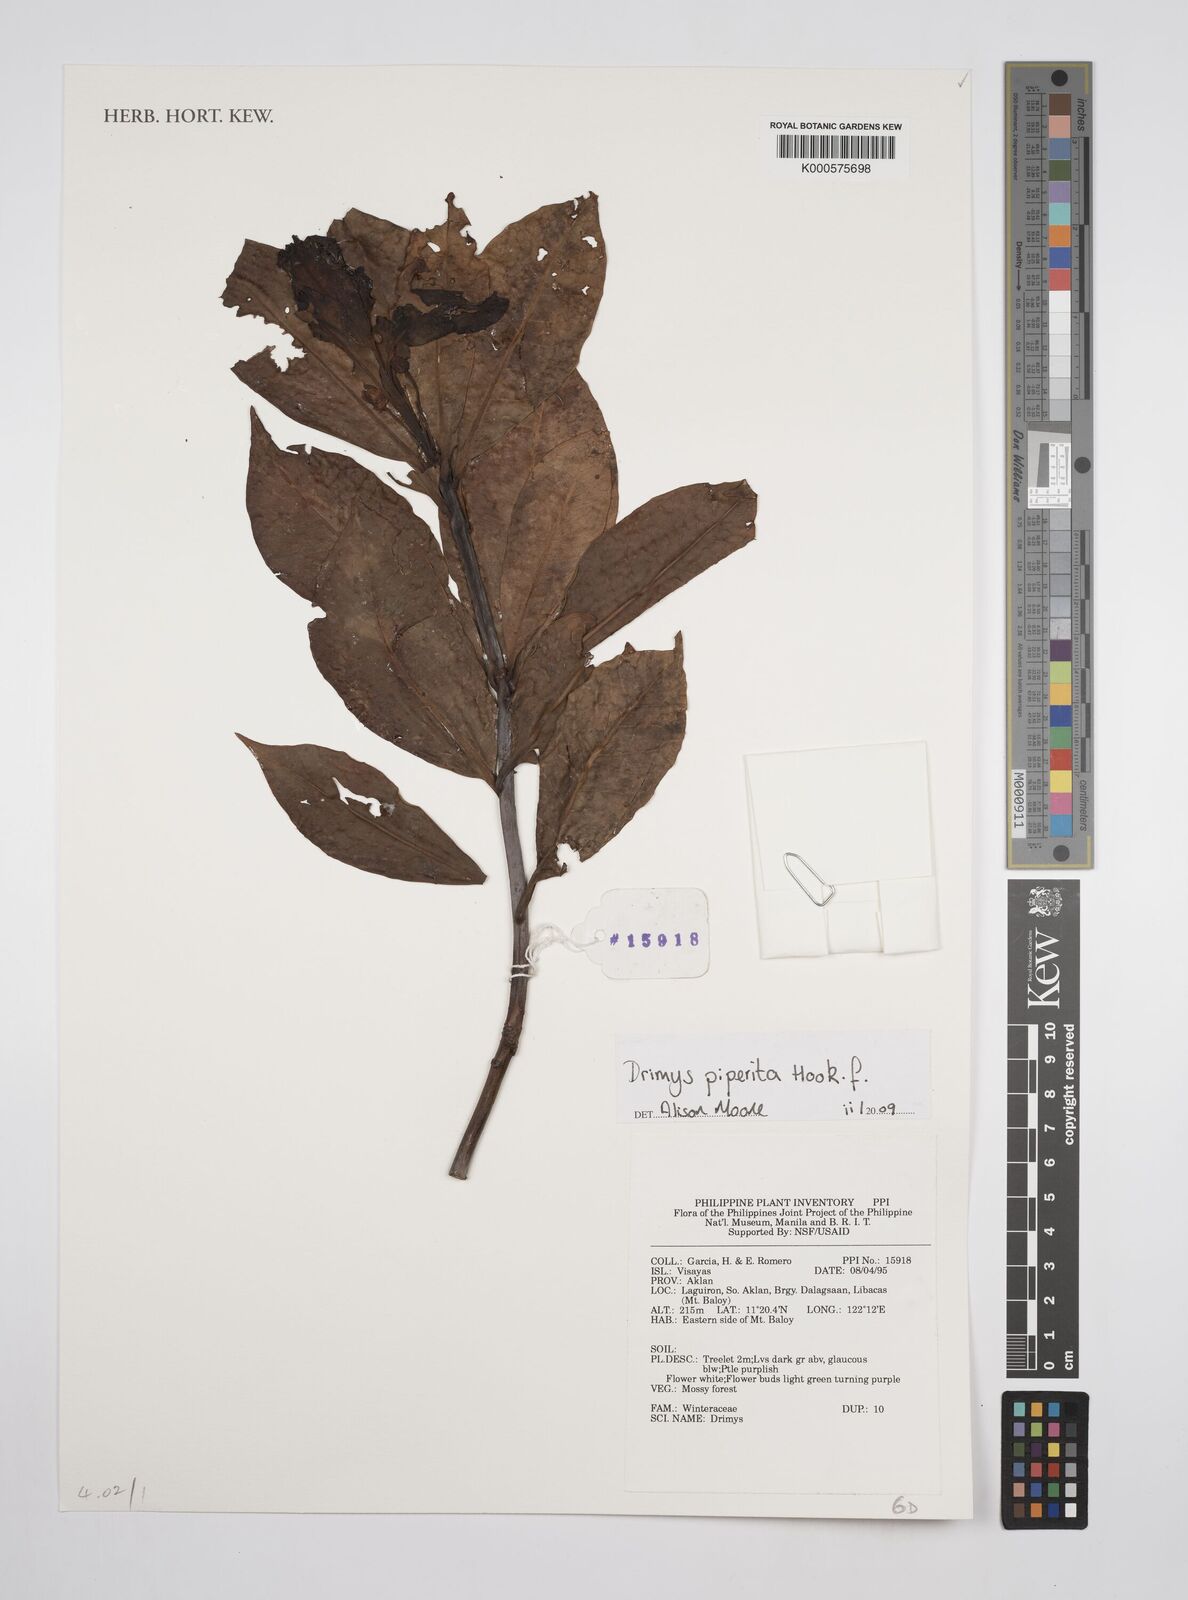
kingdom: Plantae
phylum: Tracheophyta
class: Magnoliopsida
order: Canellales
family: Winteraceae
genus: Drimys
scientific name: Drimys piperita
